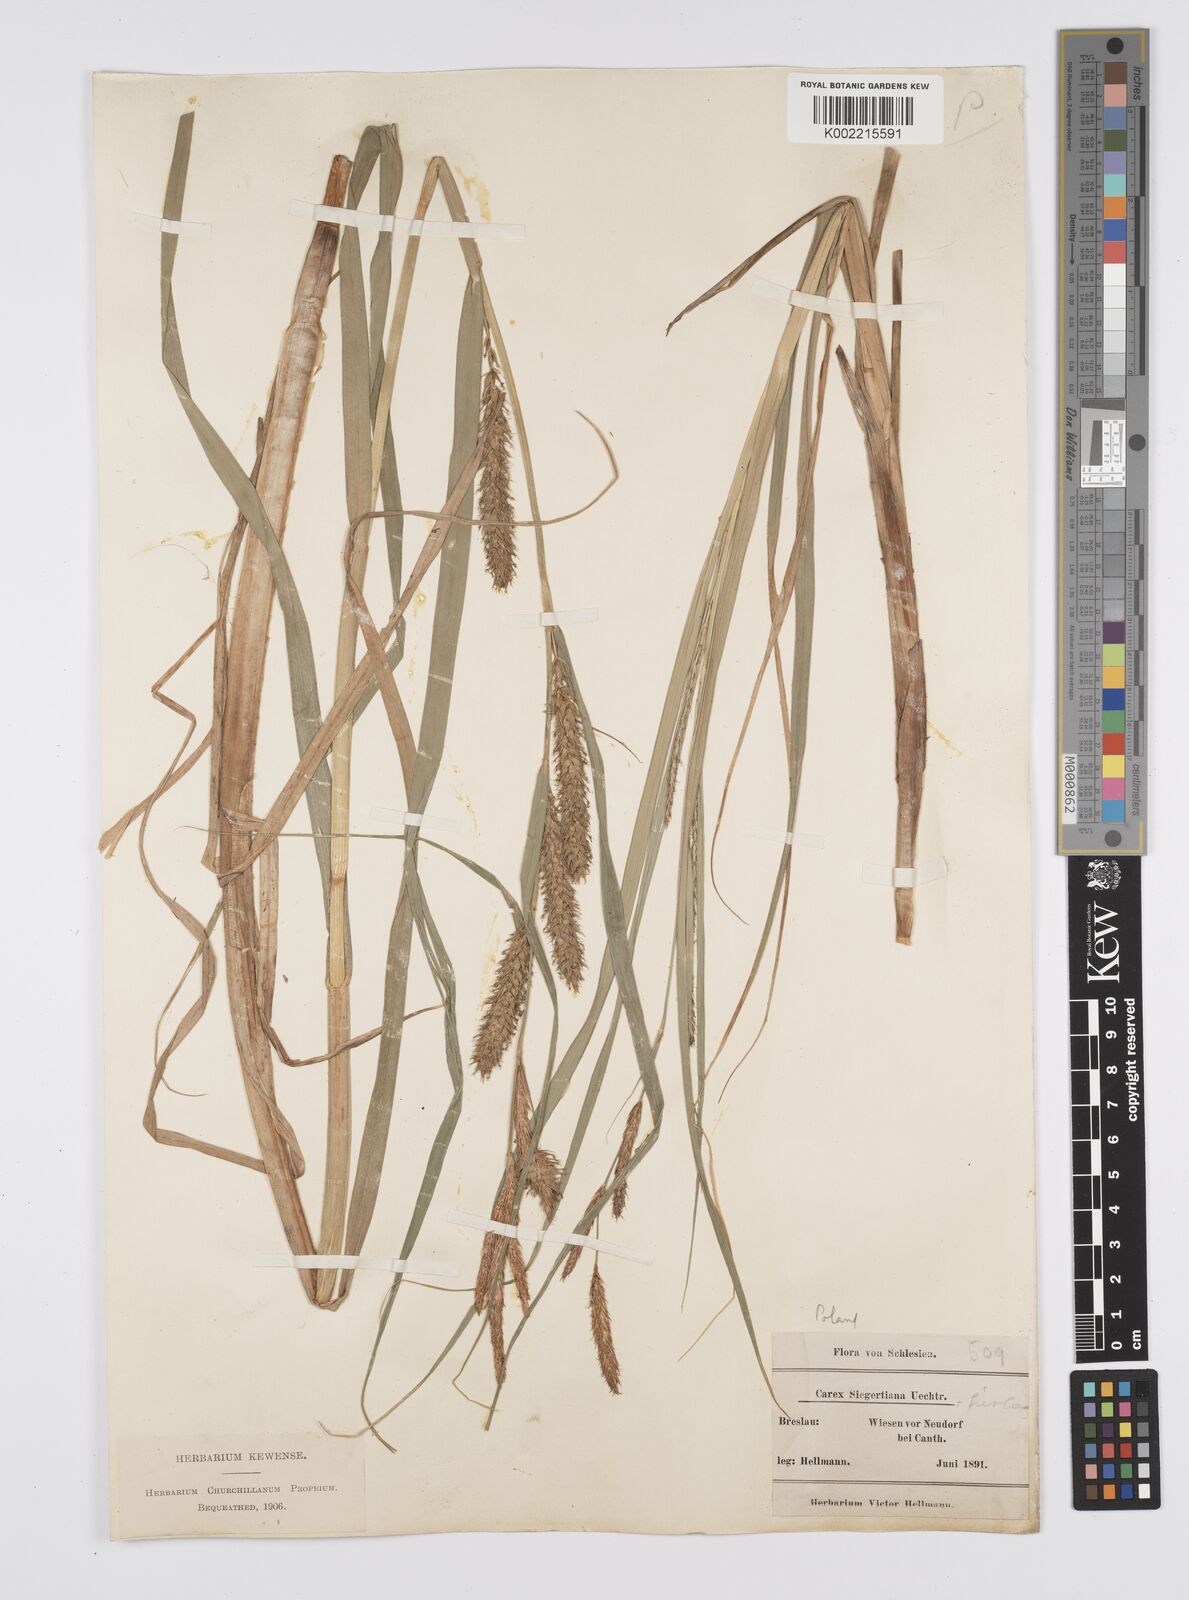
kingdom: Plantae
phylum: Tracheophyta
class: Liliopsida
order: Poales
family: Cyperaceae
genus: Carex
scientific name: Carex hirta
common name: Hairy sedge
